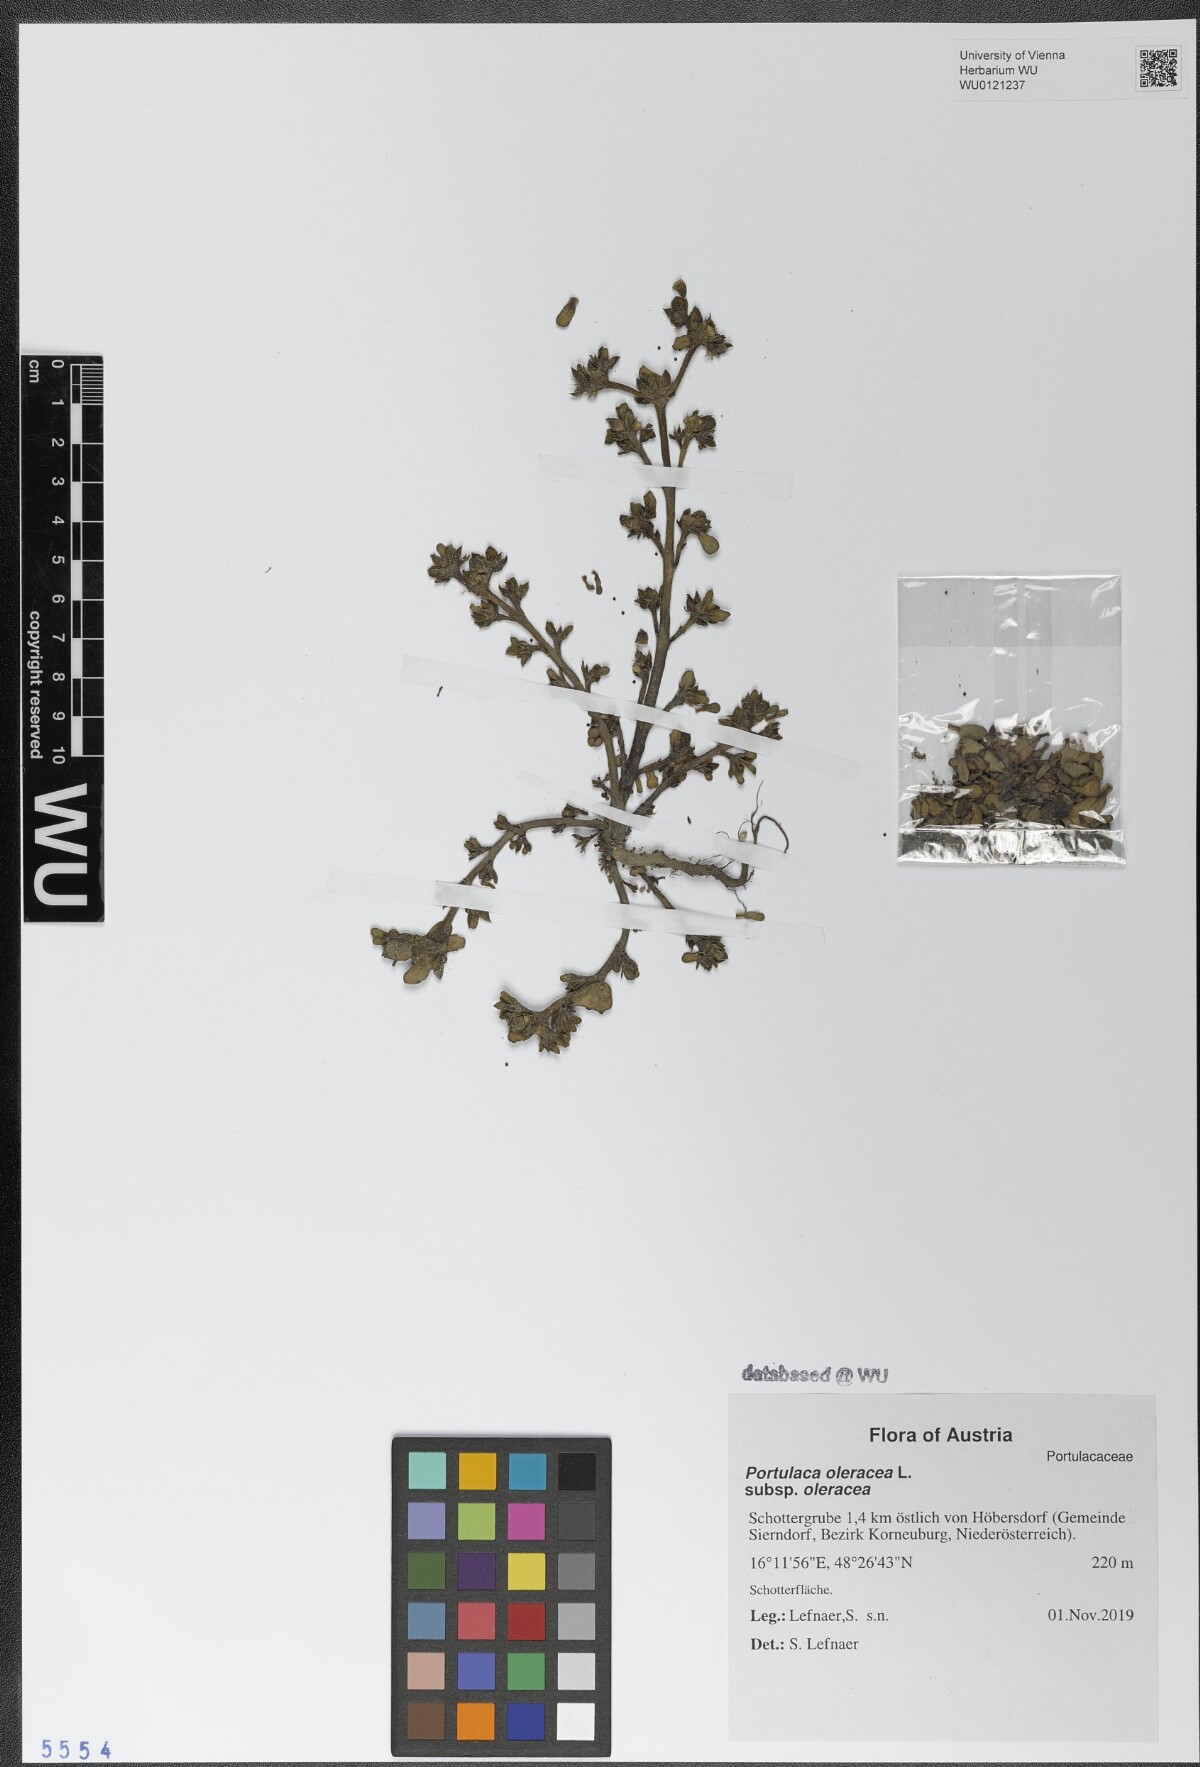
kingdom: Plantae
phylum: Tracheophyta
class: Magnoliopsida
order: Caryophyllales
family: Portulacaceae
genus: Portulaca
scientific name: Portulaca oleracea
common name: Common purslane
